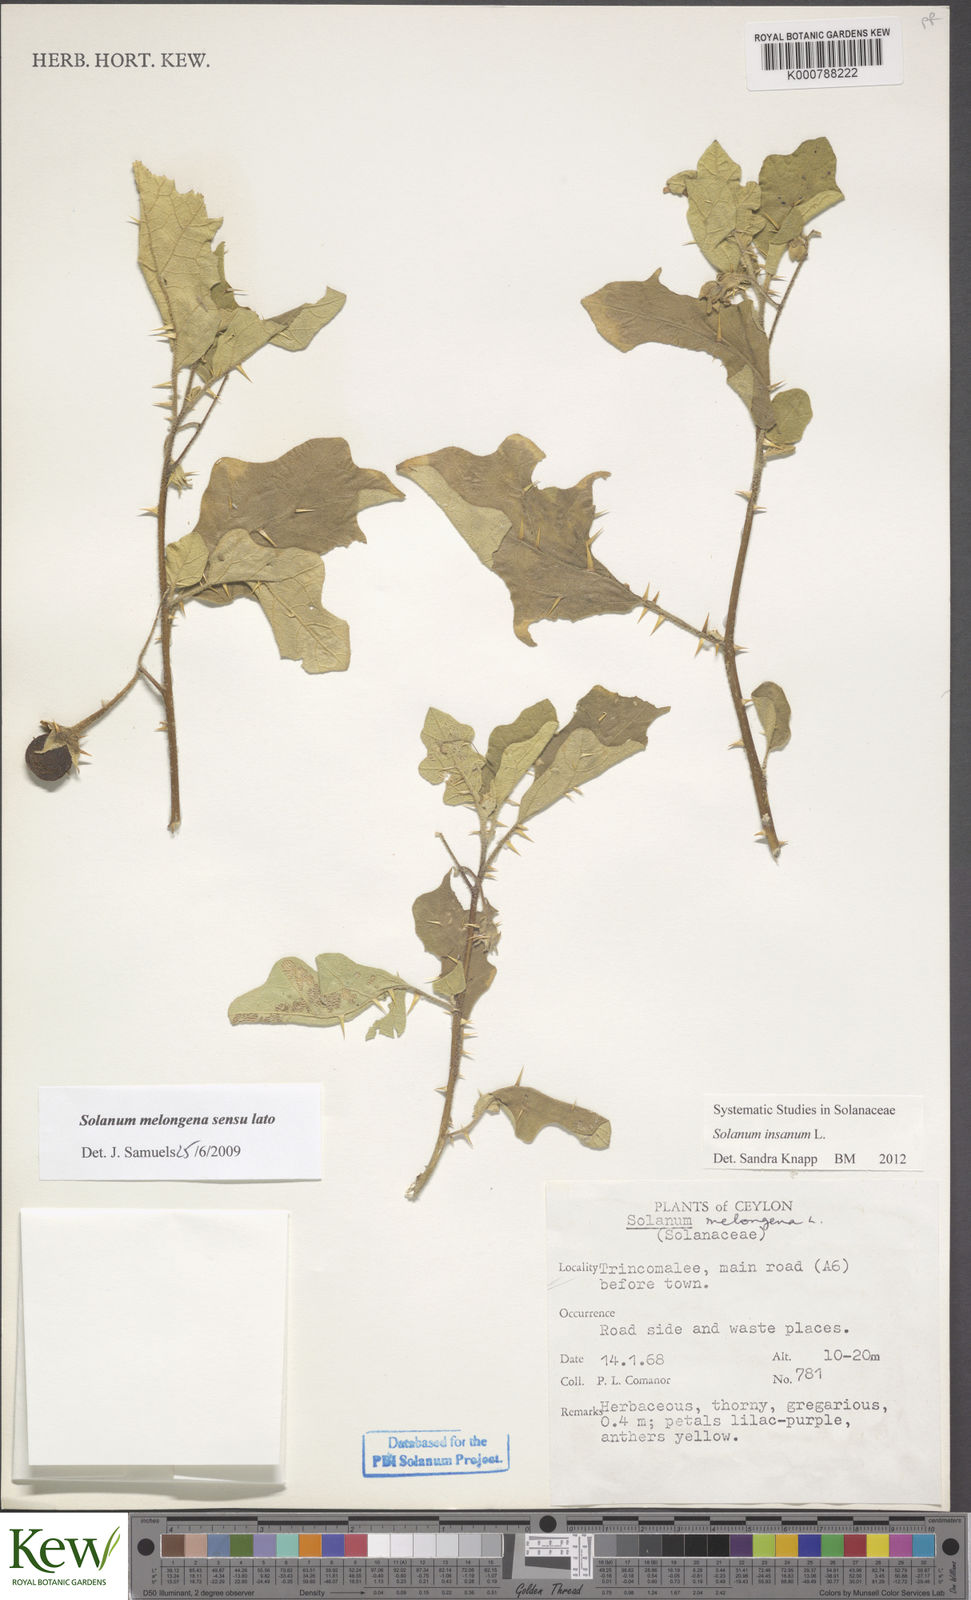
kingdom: Plantae
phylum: Tracheophyta
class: Magnoliopsida
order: Solanales
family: Solanaceae
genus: Solanum
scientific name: Solanum insanum
